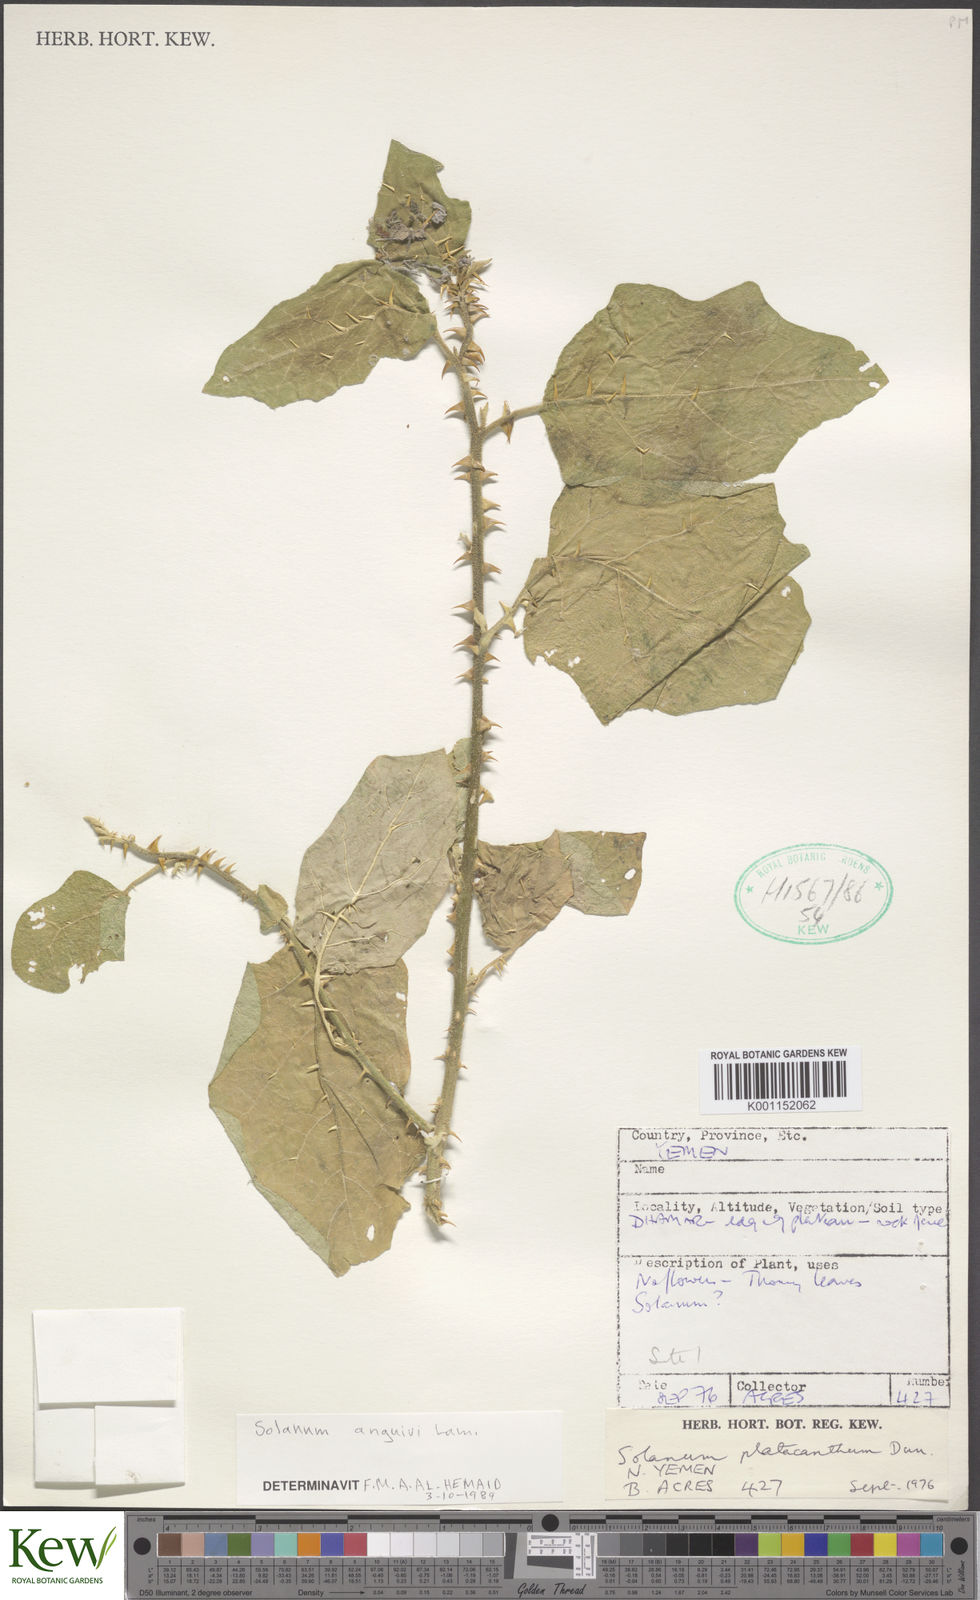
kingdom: Plantae
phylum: Tracheophyta
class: Magnoliopsida
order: Solanales
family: Solanaceae
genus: Solanum
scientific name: Solanum anguivi
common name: Forest bitterberry
